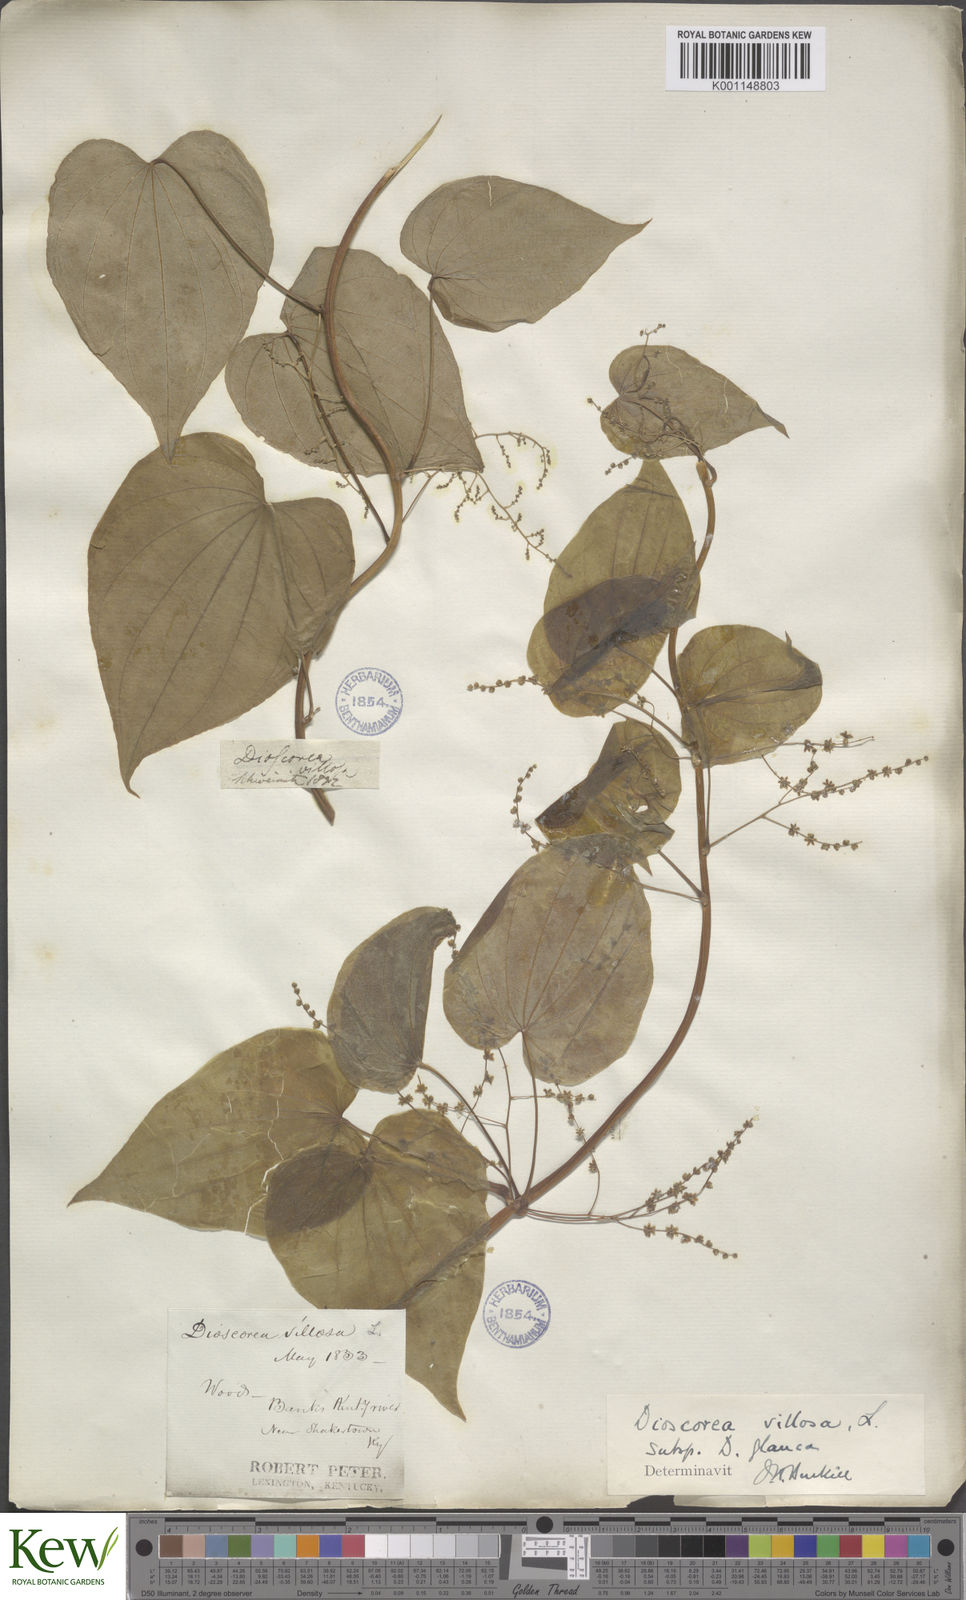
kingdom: Plantae
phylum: Tracheophyta
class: Liliopsida
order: Dioscoreales
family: Dioscoreaceae
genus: Dioscorea
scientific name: Dioscorea villosa
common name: Wild yam
